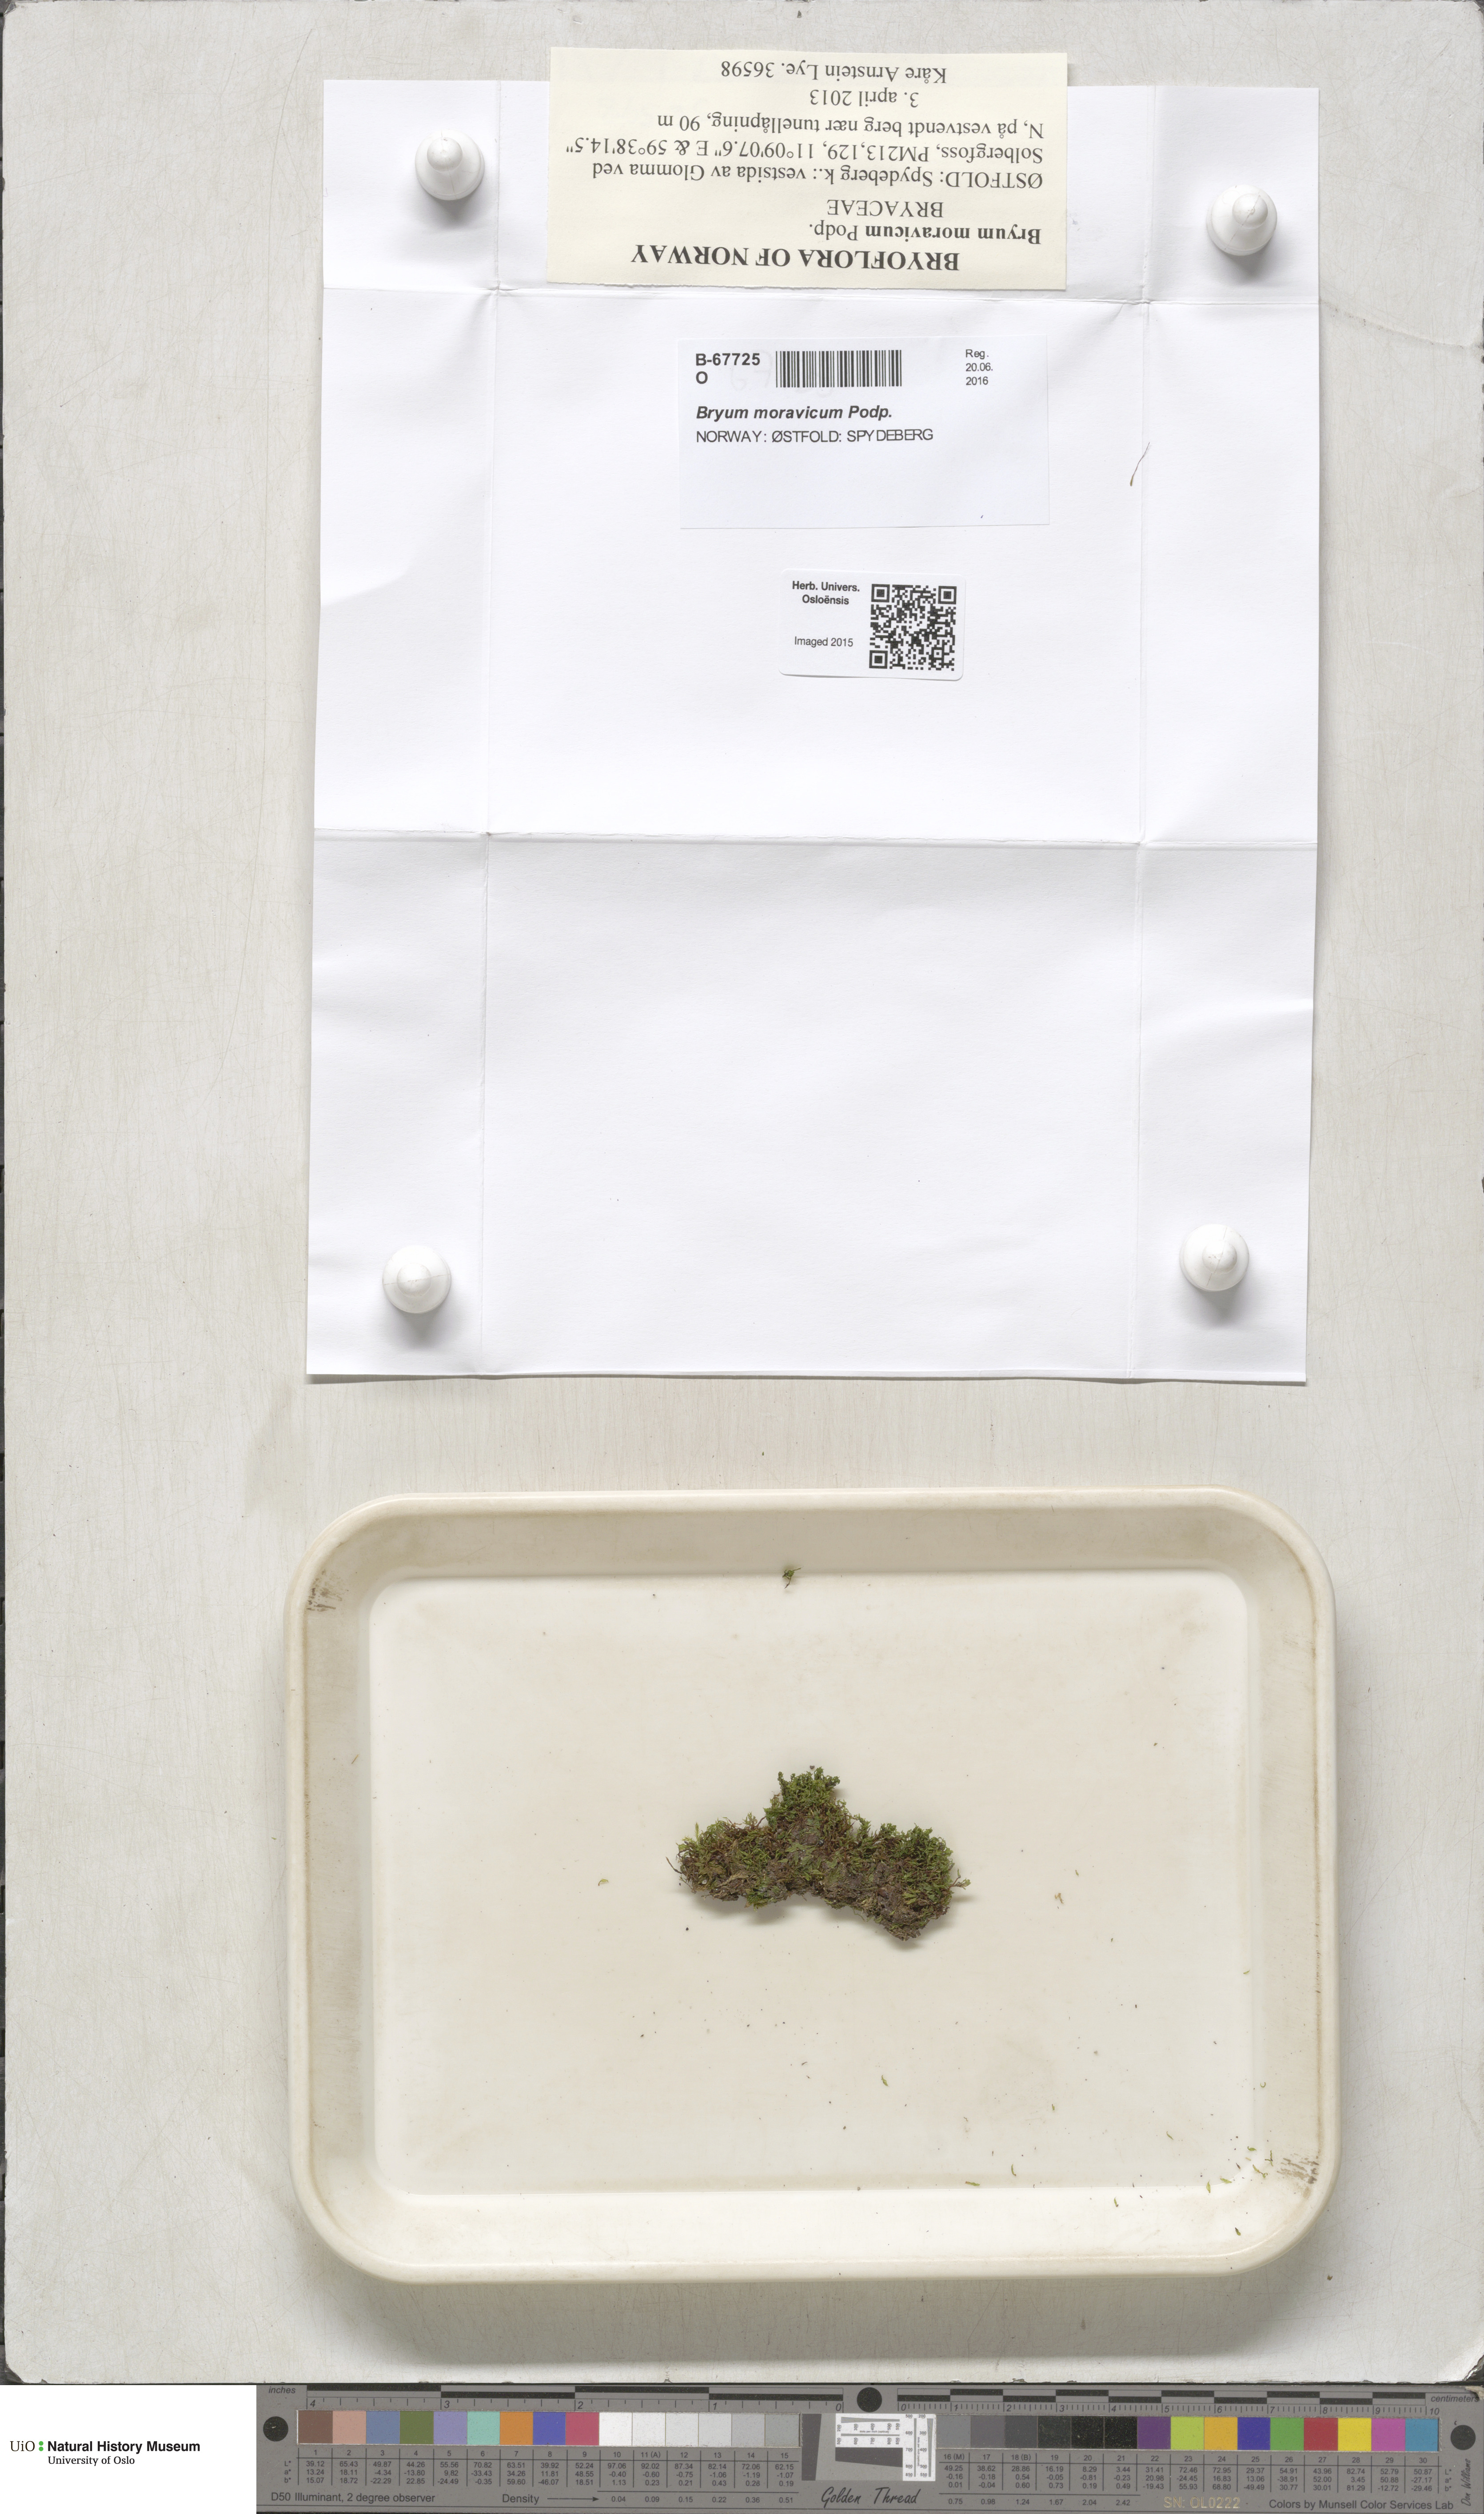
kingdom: Plantae
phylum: Bryophyta
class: Bryopsida
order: Bryales
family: Bryaceae
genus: Rosulabryum
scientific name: Rosulabryum moravicum
